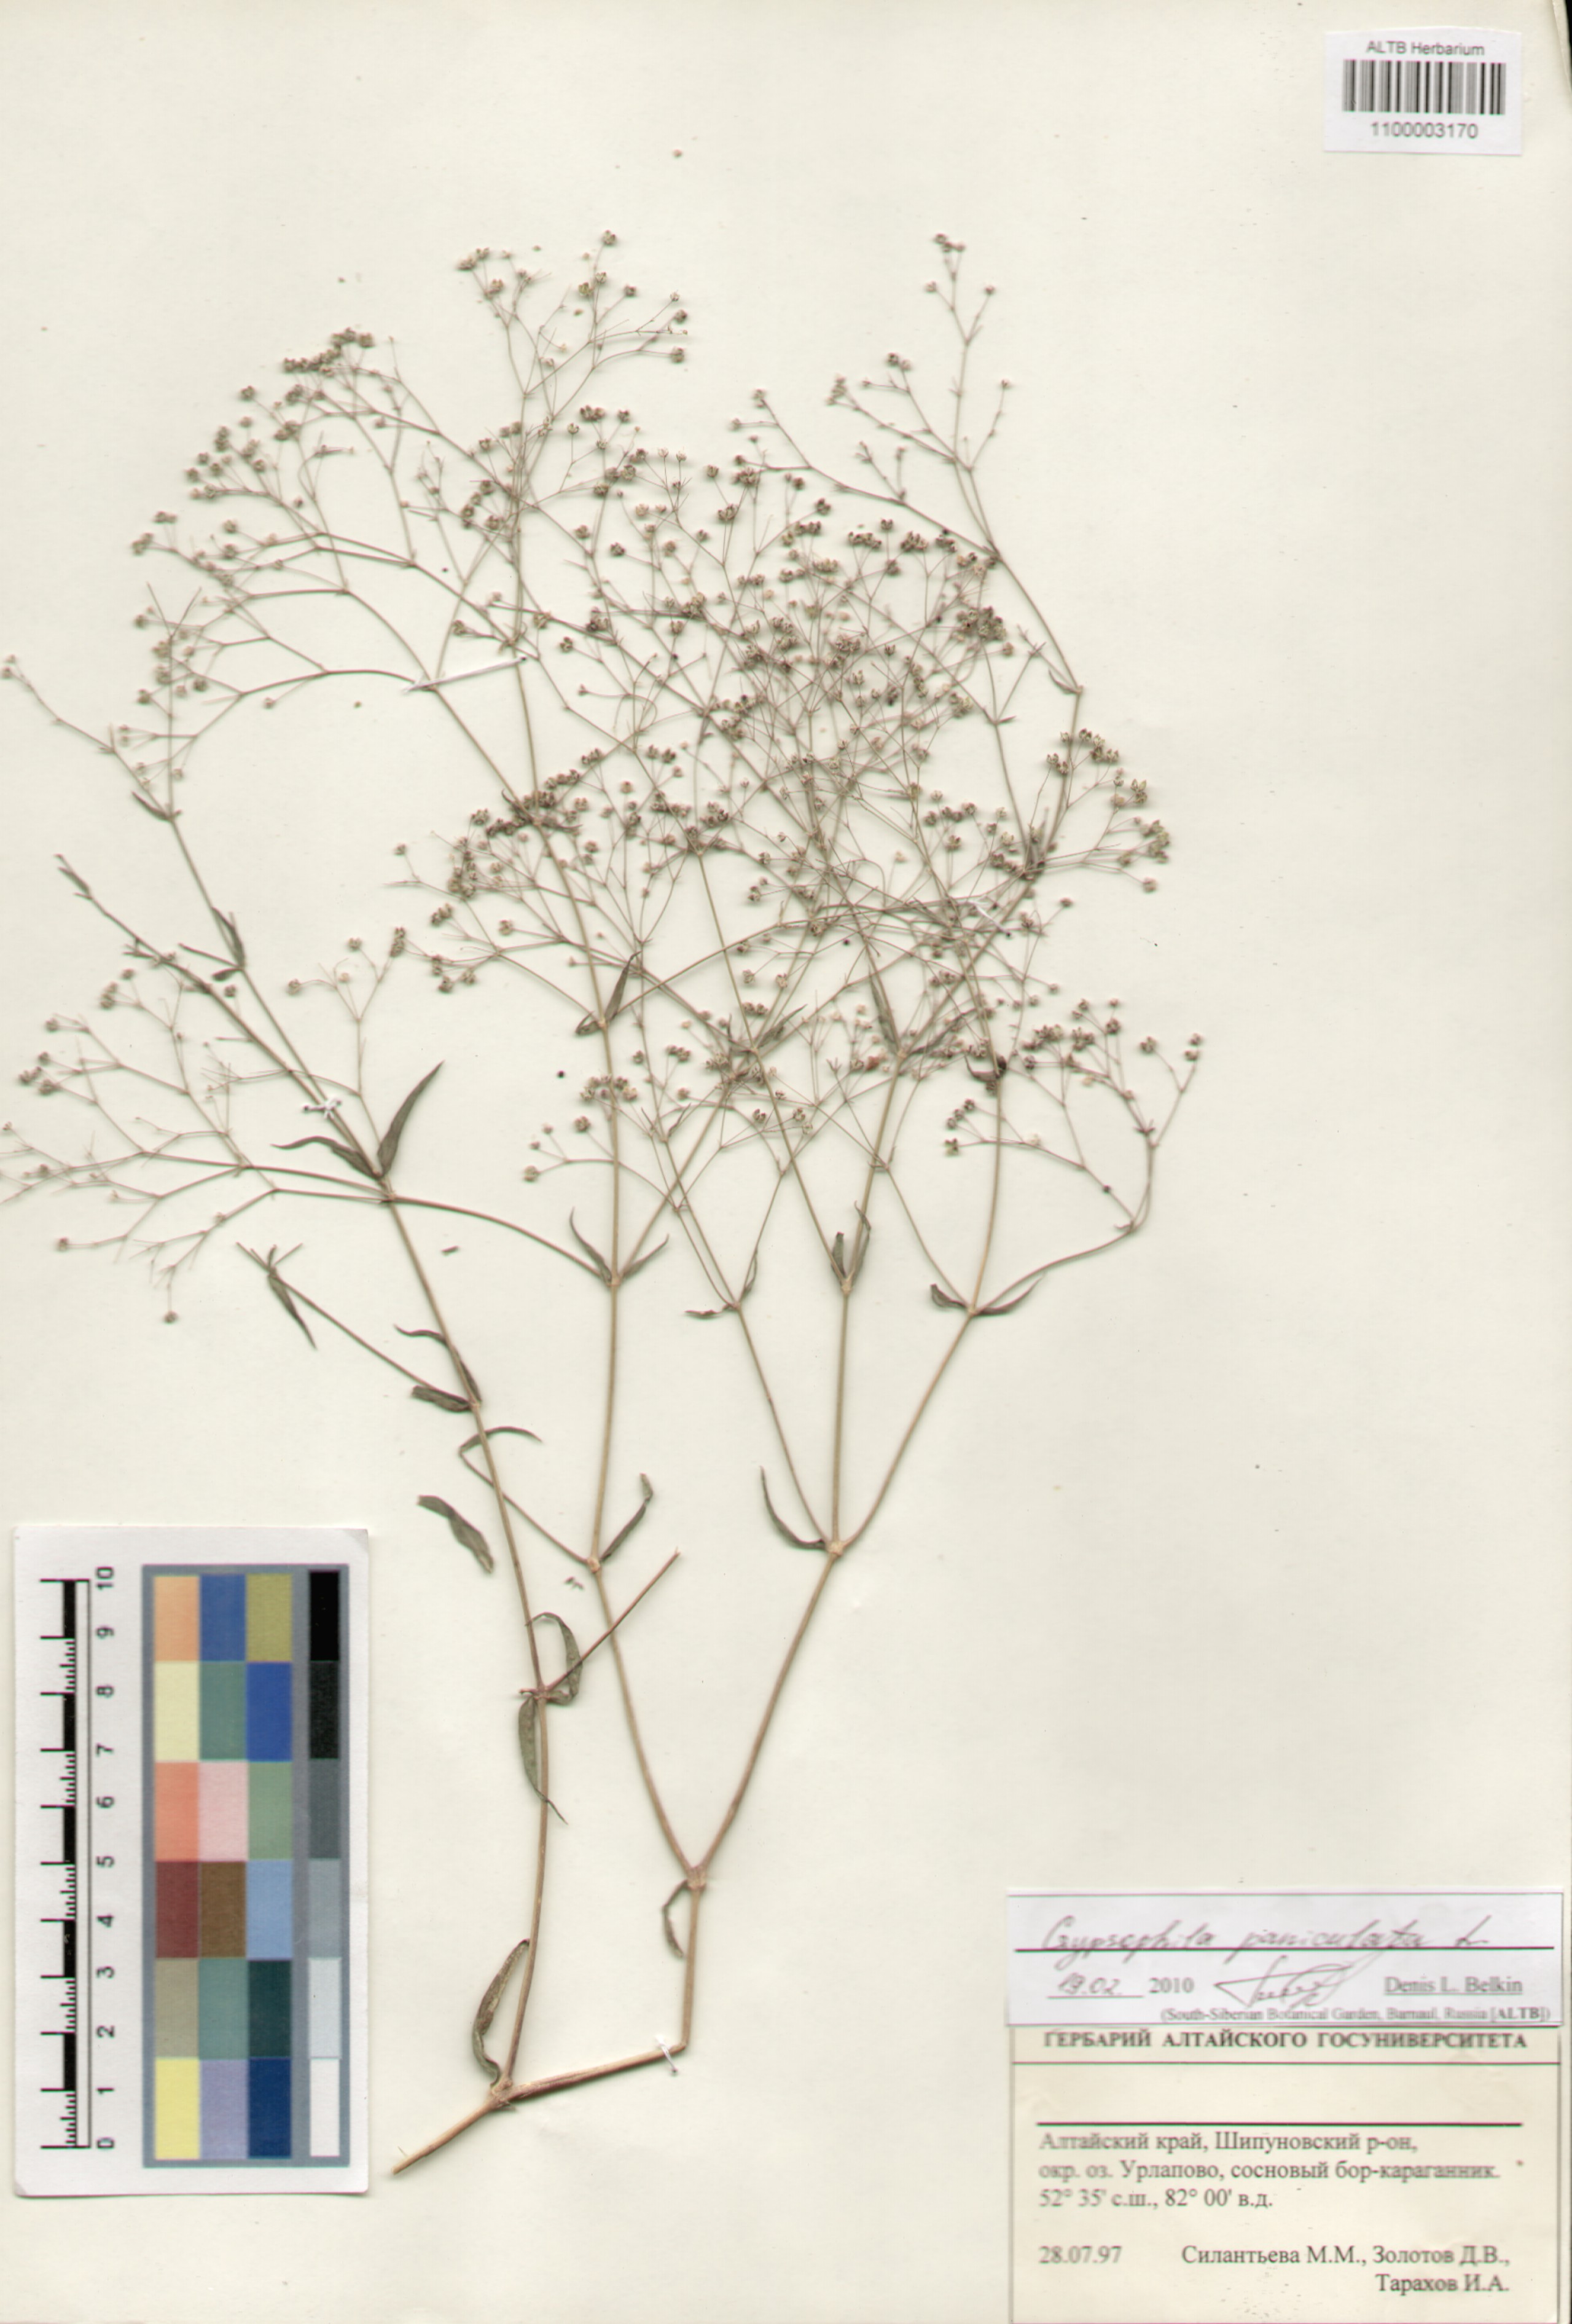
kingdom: Plantae
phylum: Tracheophyta
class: Magnoliopsida
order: Caryophyllales
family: Caryophyllaceae
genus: Gypsophila
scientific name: Gypsophila paniculata
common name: Baby's-breath
